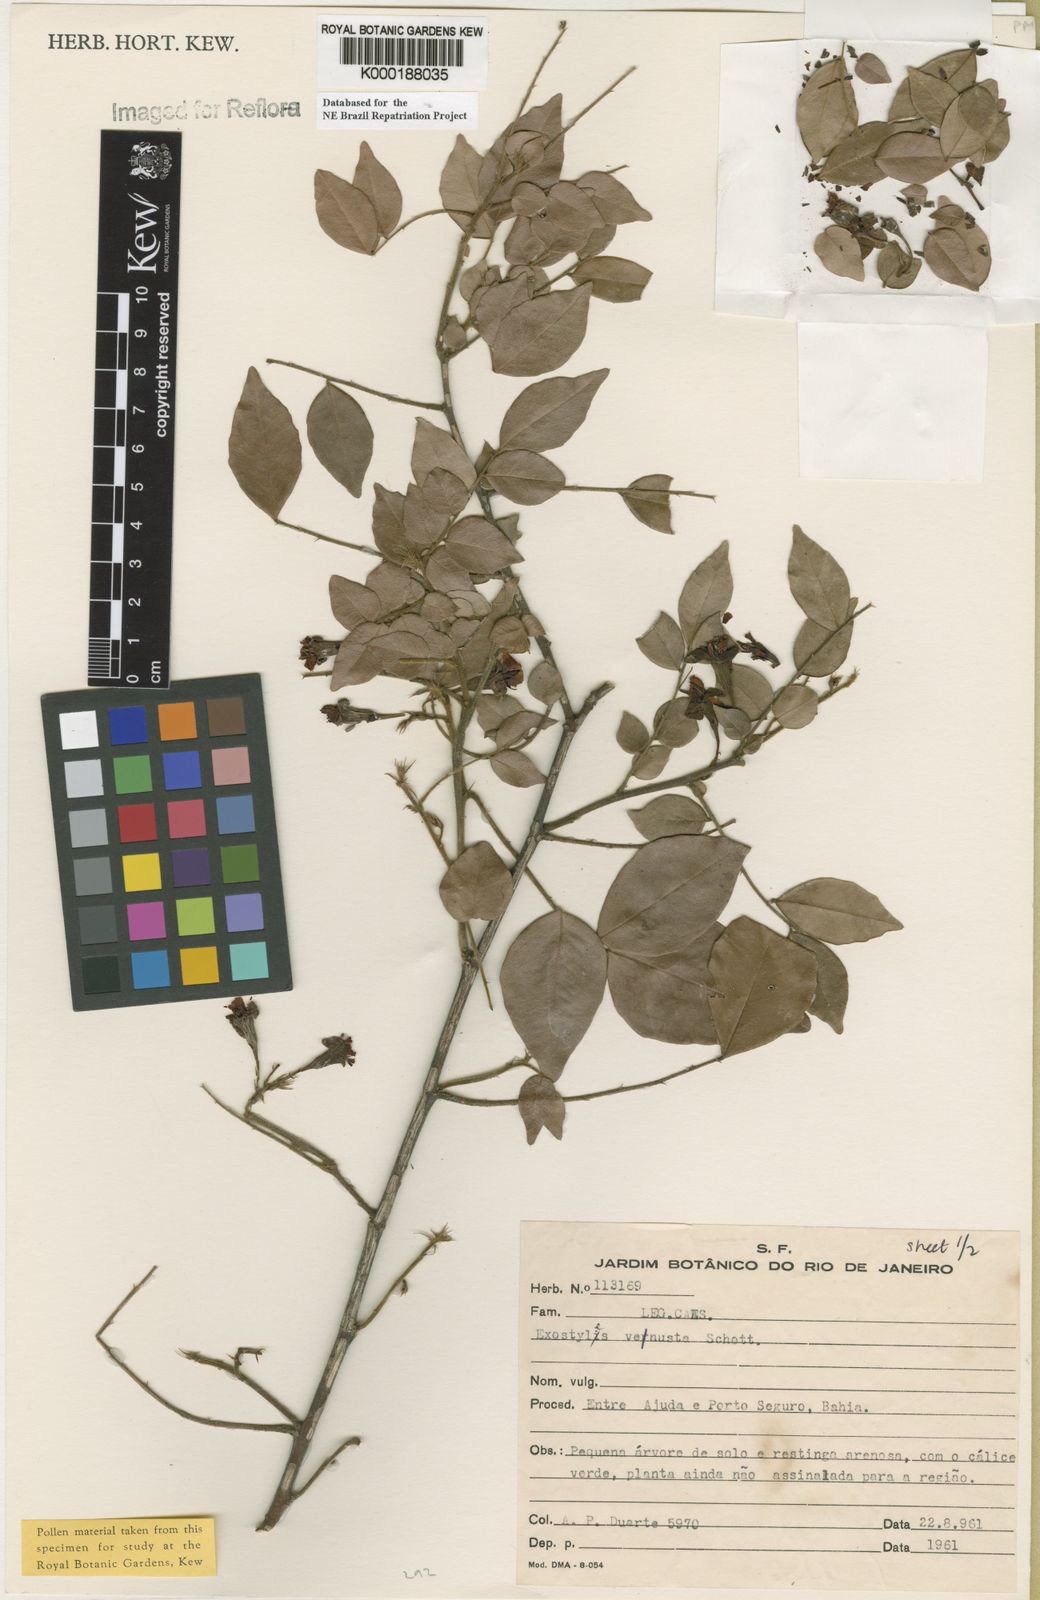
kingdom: Plantae
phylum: Tracheophyta
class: Magnoliopsida
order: Fabales
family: Fabaceae
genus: Exostyles
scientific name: Exostyles
